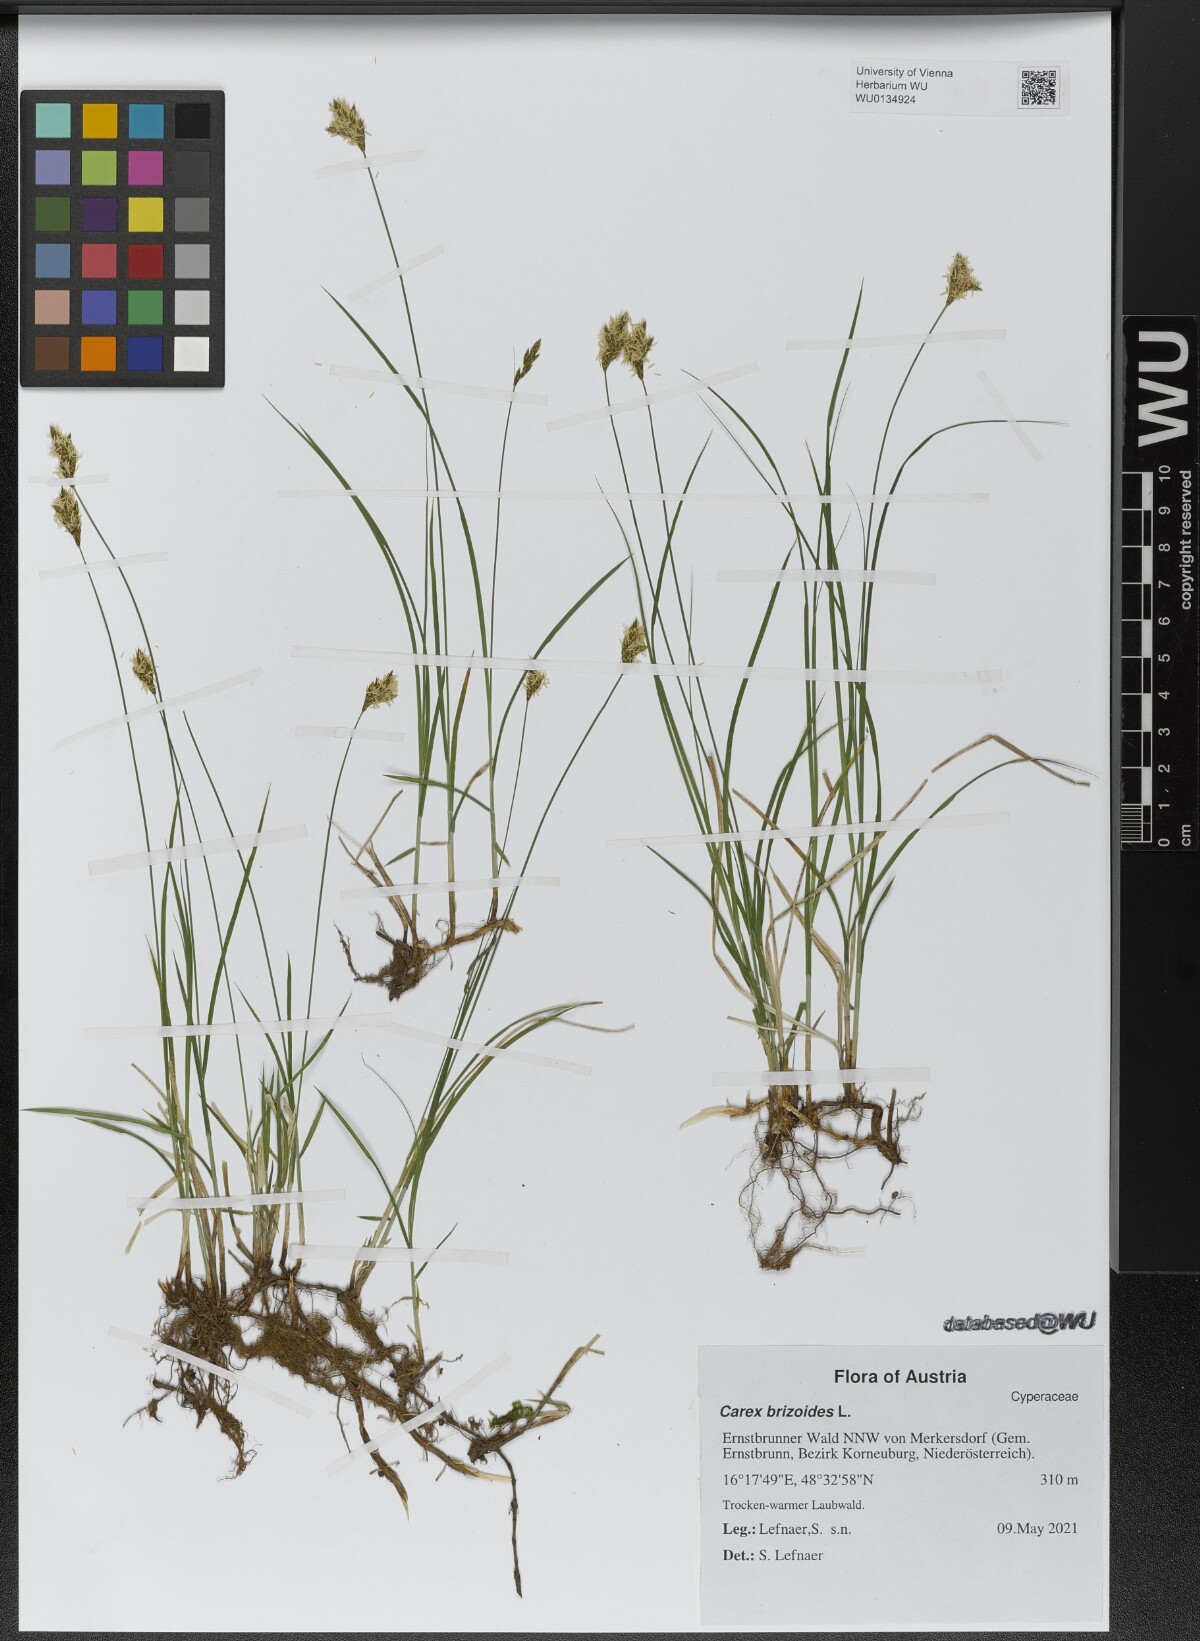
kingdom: Plantae
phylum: Tracheophyta
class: Liliopsida
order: Poales
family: Cyperaceae
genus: Carex
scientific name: Carex brizoides
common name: Quaking-grass sedge
